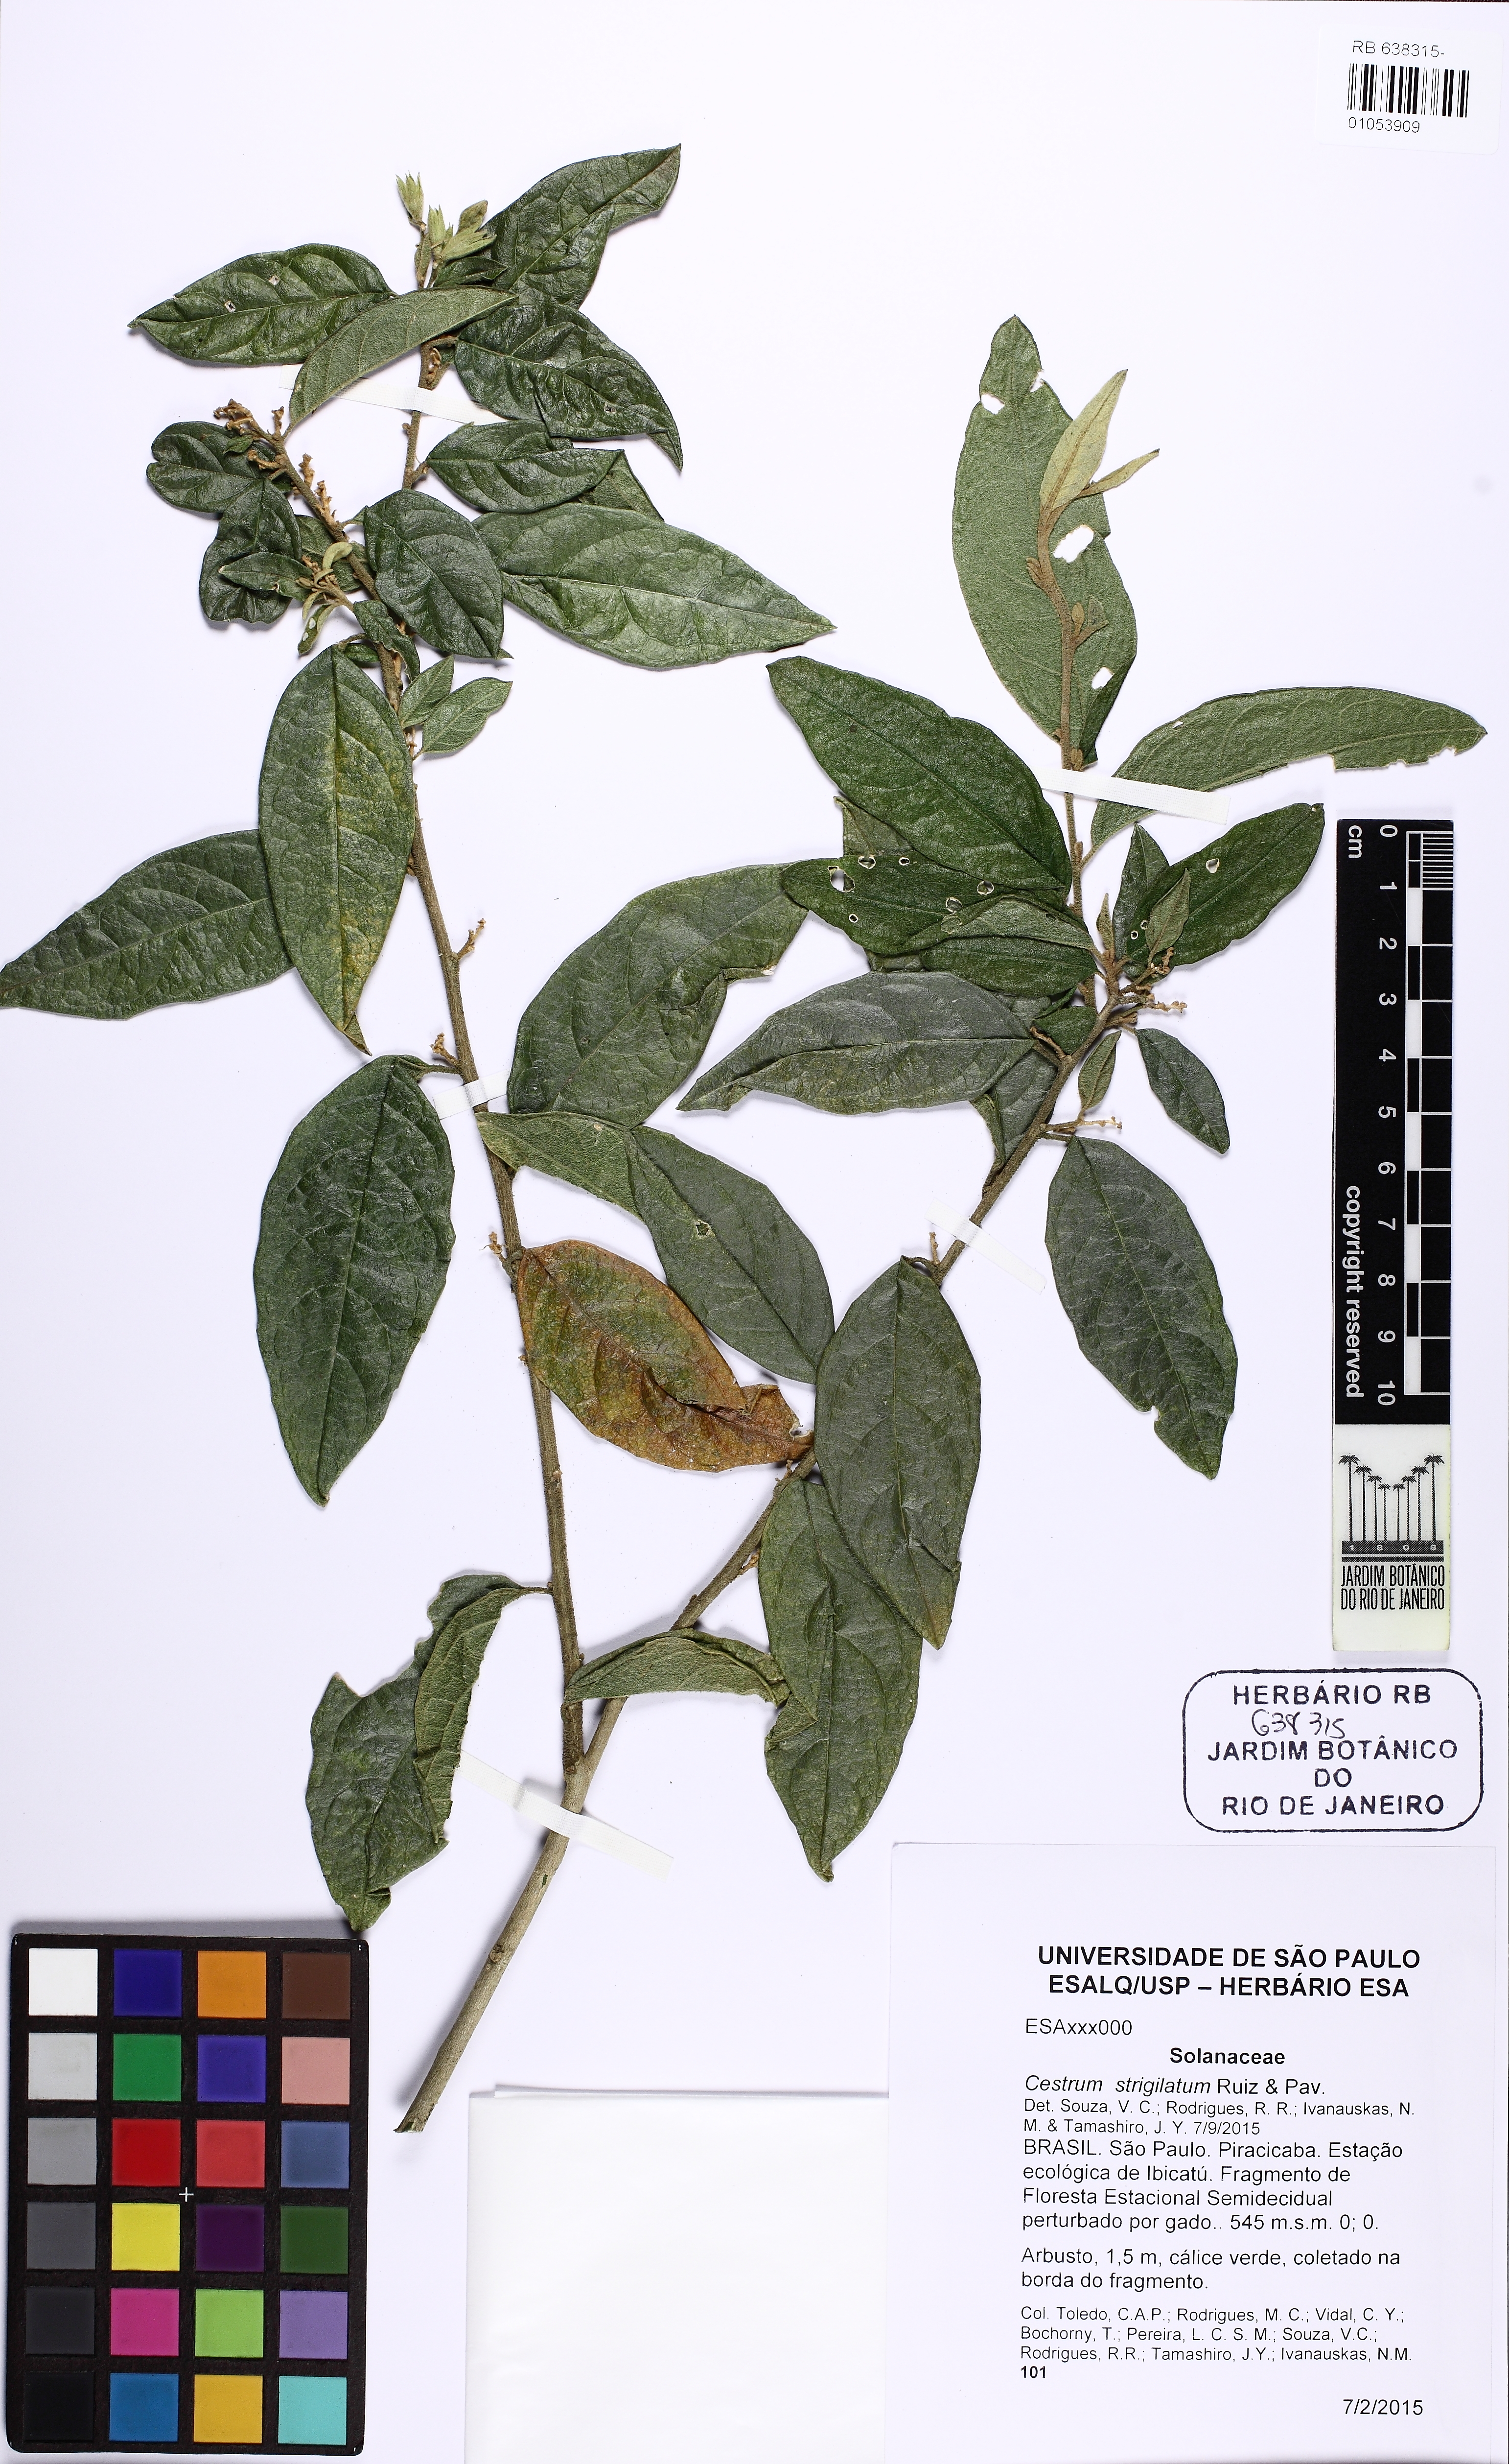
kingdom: Plantae
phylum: Tracheophyta
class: Magnoliopsida
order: Solanales
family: Solanaceae
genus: Cestrum
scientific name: Cestrum strigillatum
